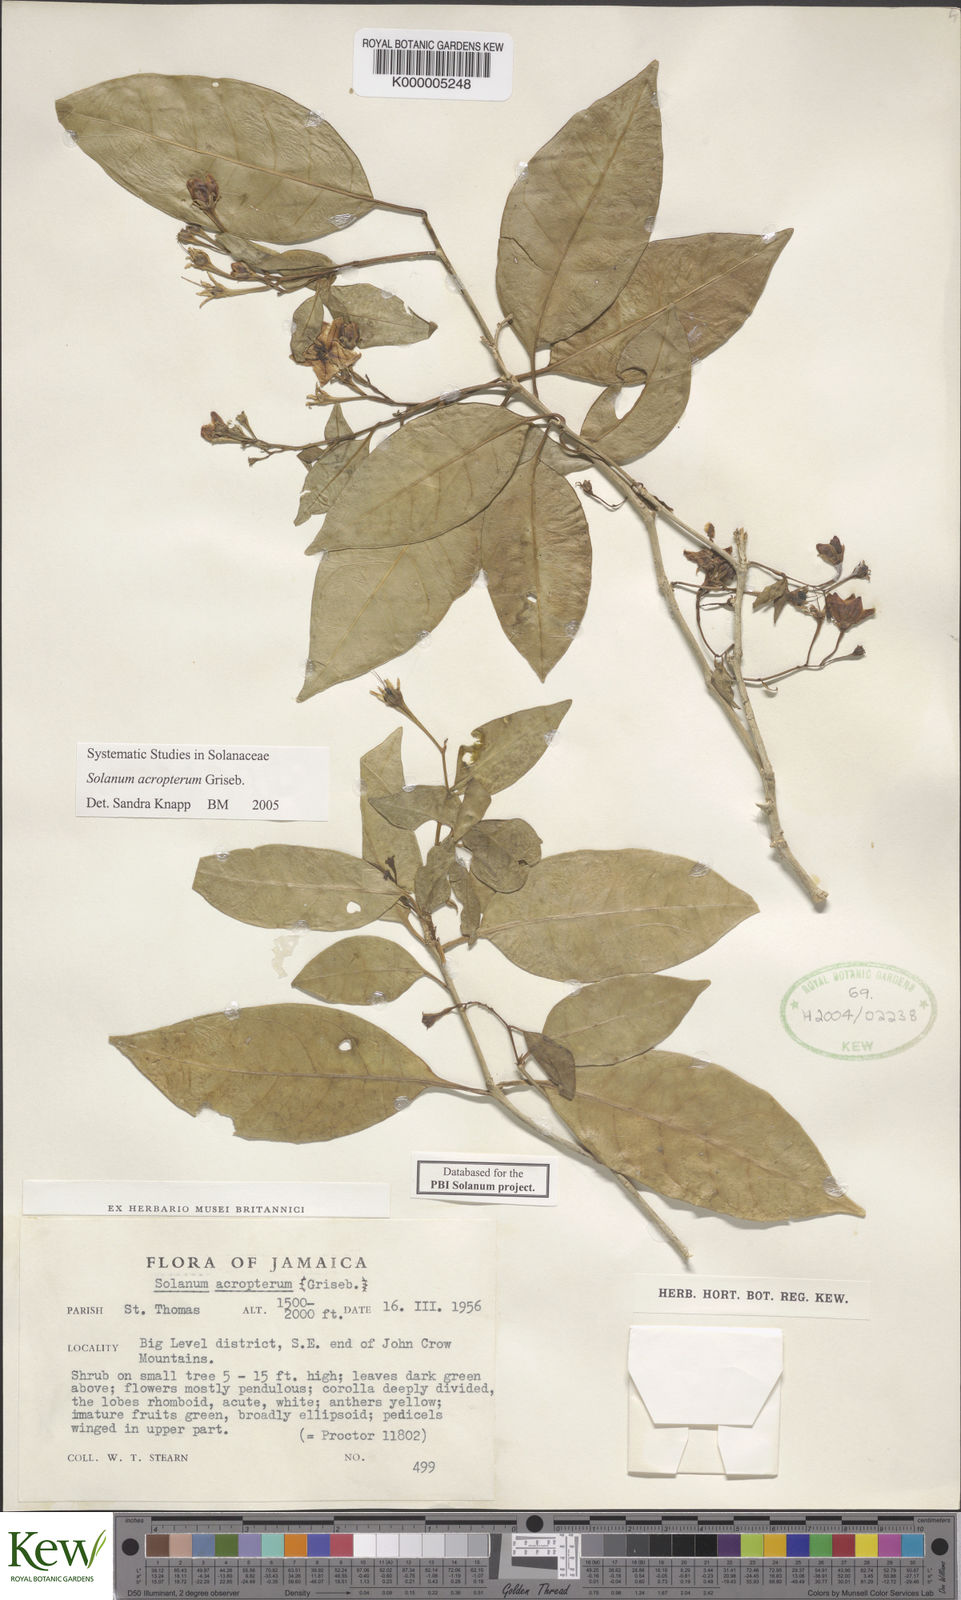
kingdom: Plantae
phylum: Tracheophyta
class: Magnoliopsida
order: Solanales
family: Solanaceae
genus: Solanum
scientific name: Solanum acropterum
